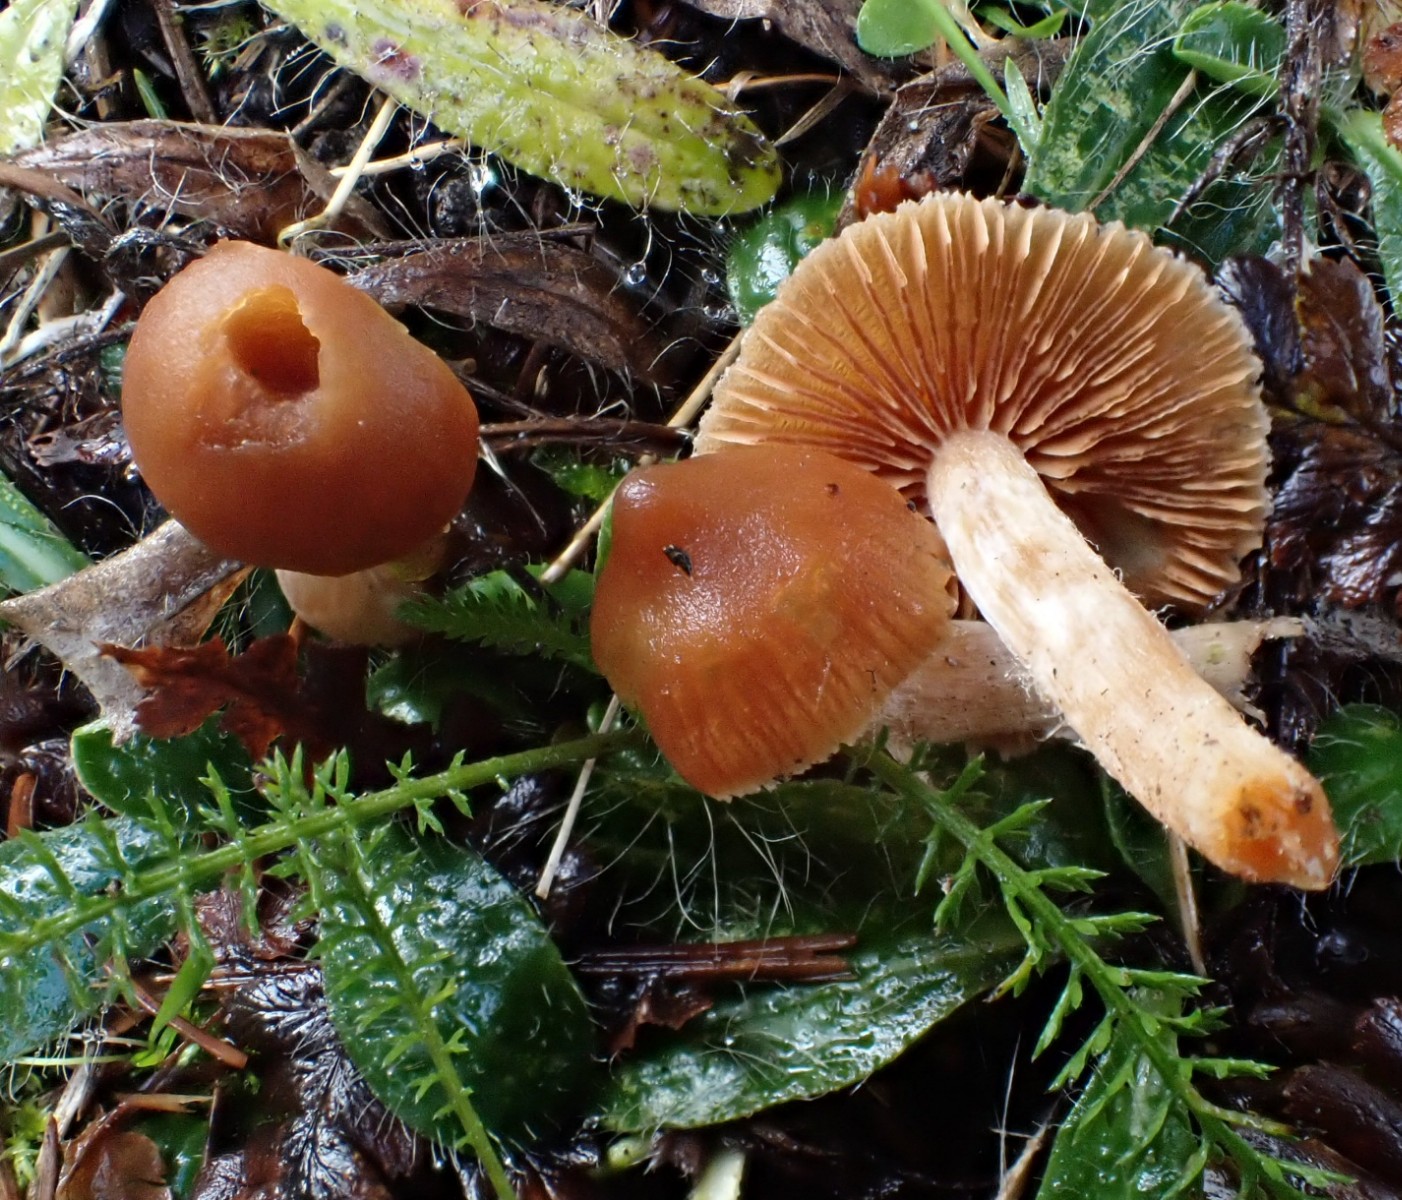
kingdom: Fungi
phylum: Basidiomycota
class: Agaricomycetes
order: Agaricales
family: Cortinariaceae
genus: Cortinarius
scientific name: Cortinarius
